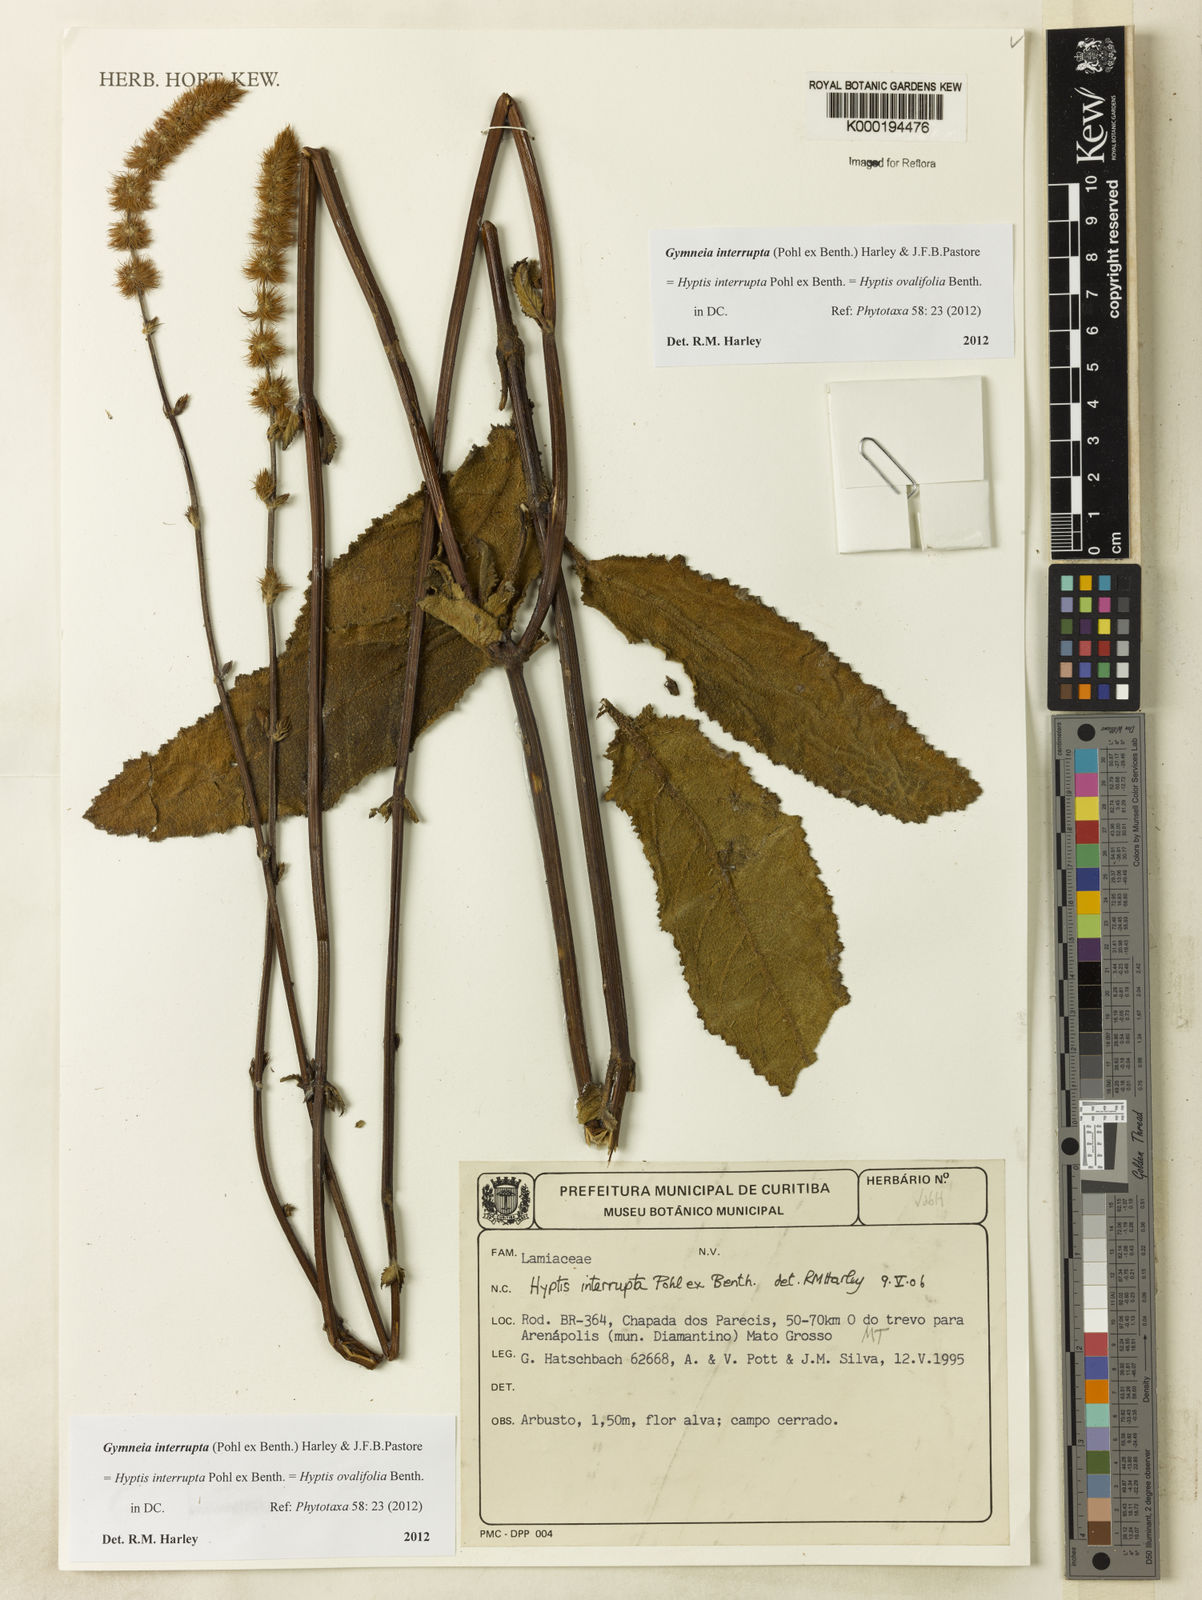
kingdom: Plantae
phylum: Tracheophyta
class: Magnoliopsida
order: Lamiales
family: Lamiaceae
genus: Gymneia
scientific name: Gymneia interrupta
